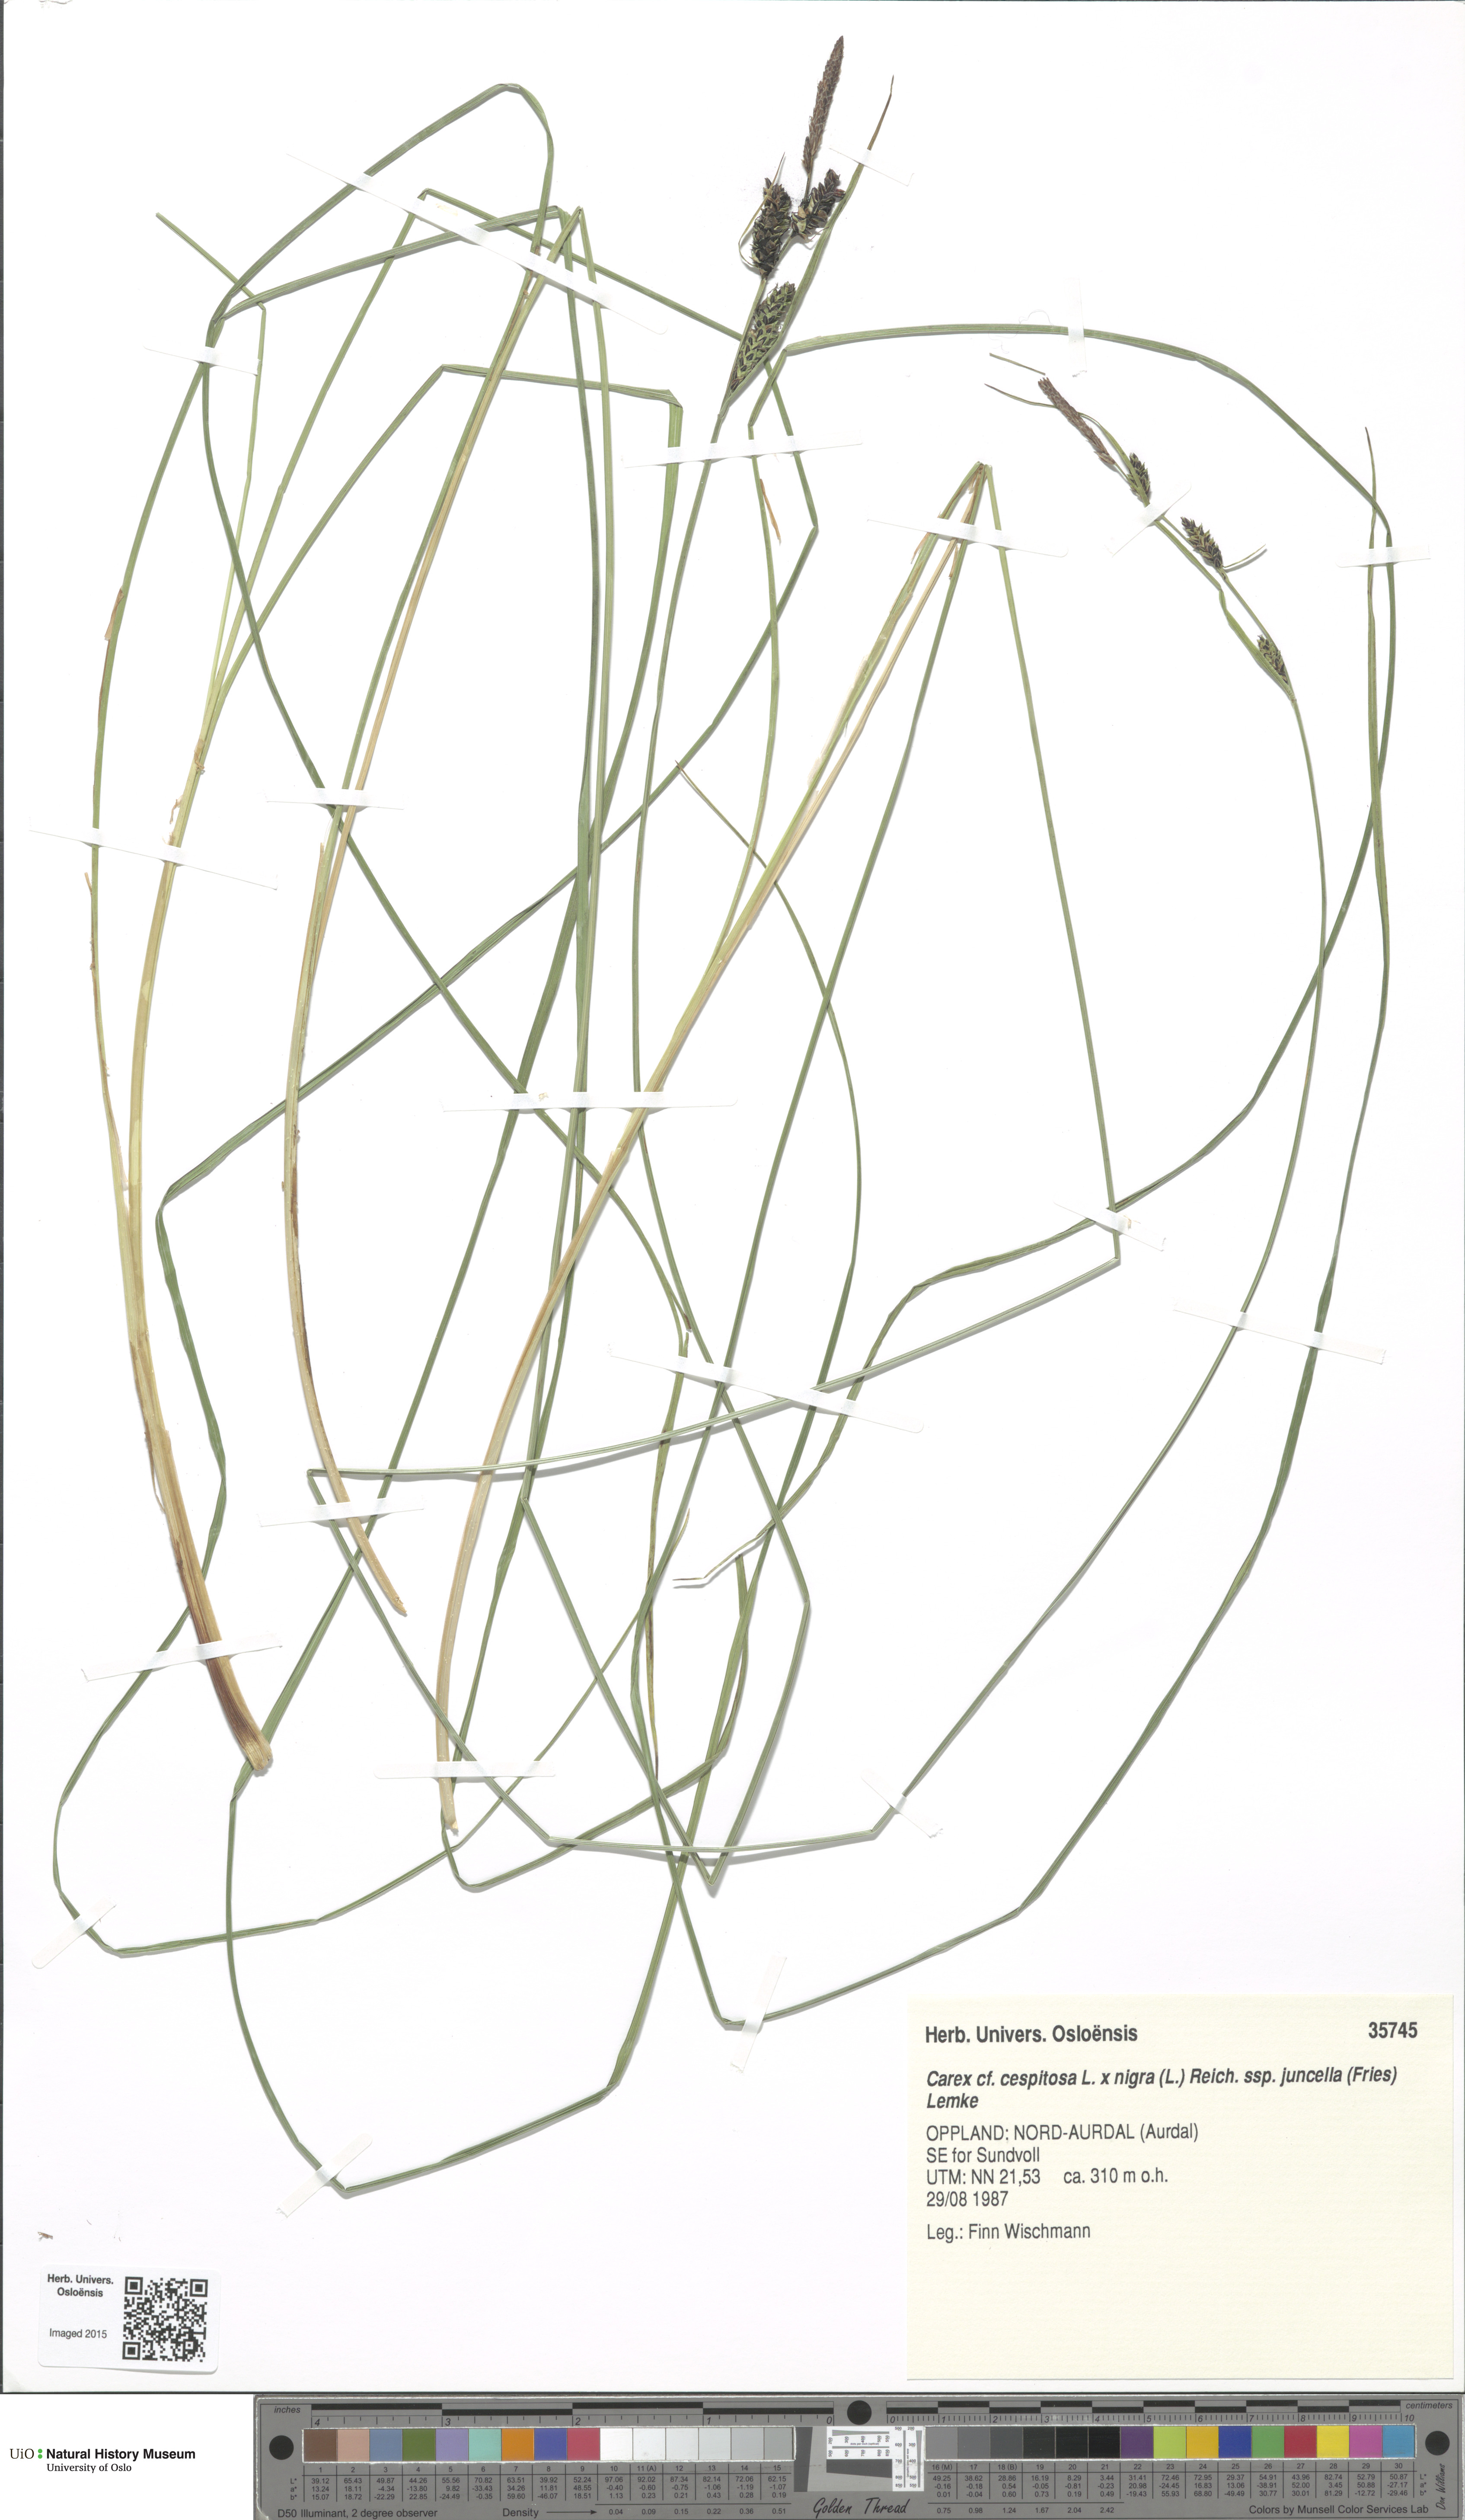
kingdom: Plantae
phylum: Tracheophyta
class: Liliopsida
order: Poales
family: Cyperaceae
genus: Carex
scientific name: Carex
